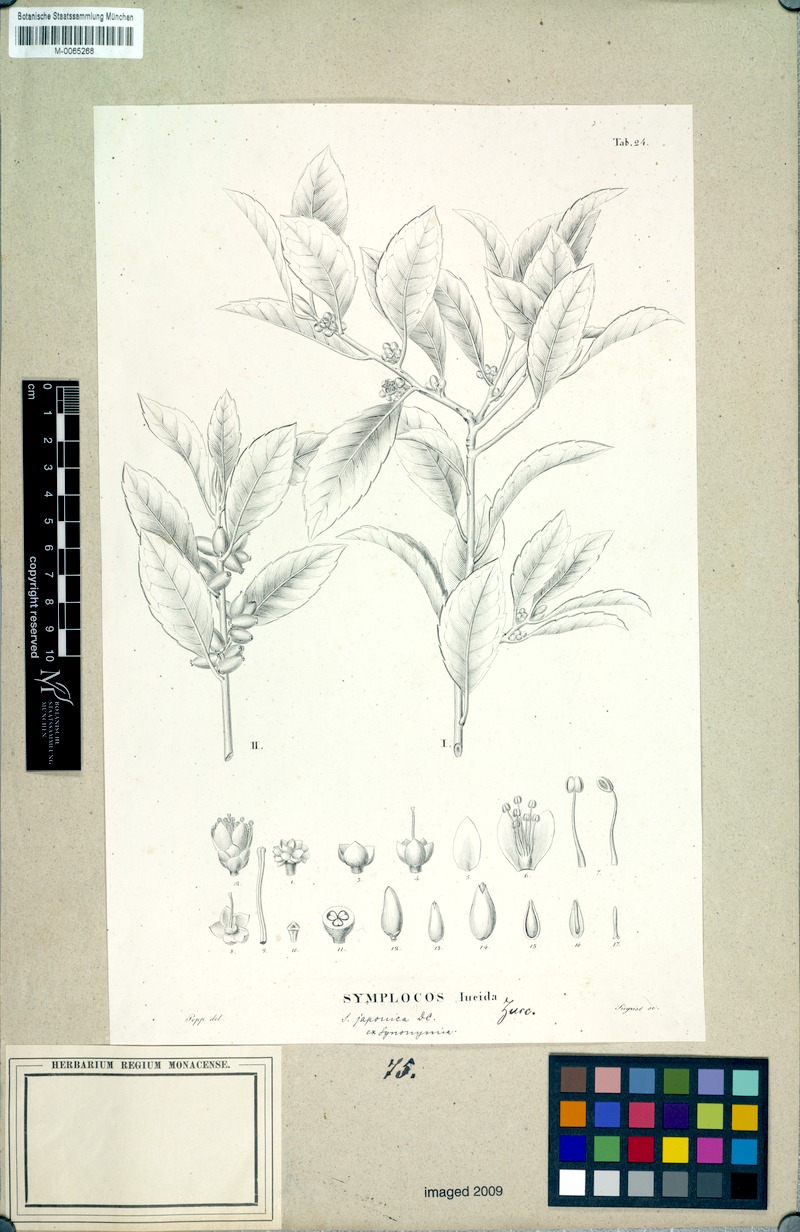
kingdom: Plantae
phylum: Tracheophyta
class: Magnoliopsida
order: Rosales
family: Rosaceae
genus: Pourthiaea
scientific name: Pourthiaea villosa
